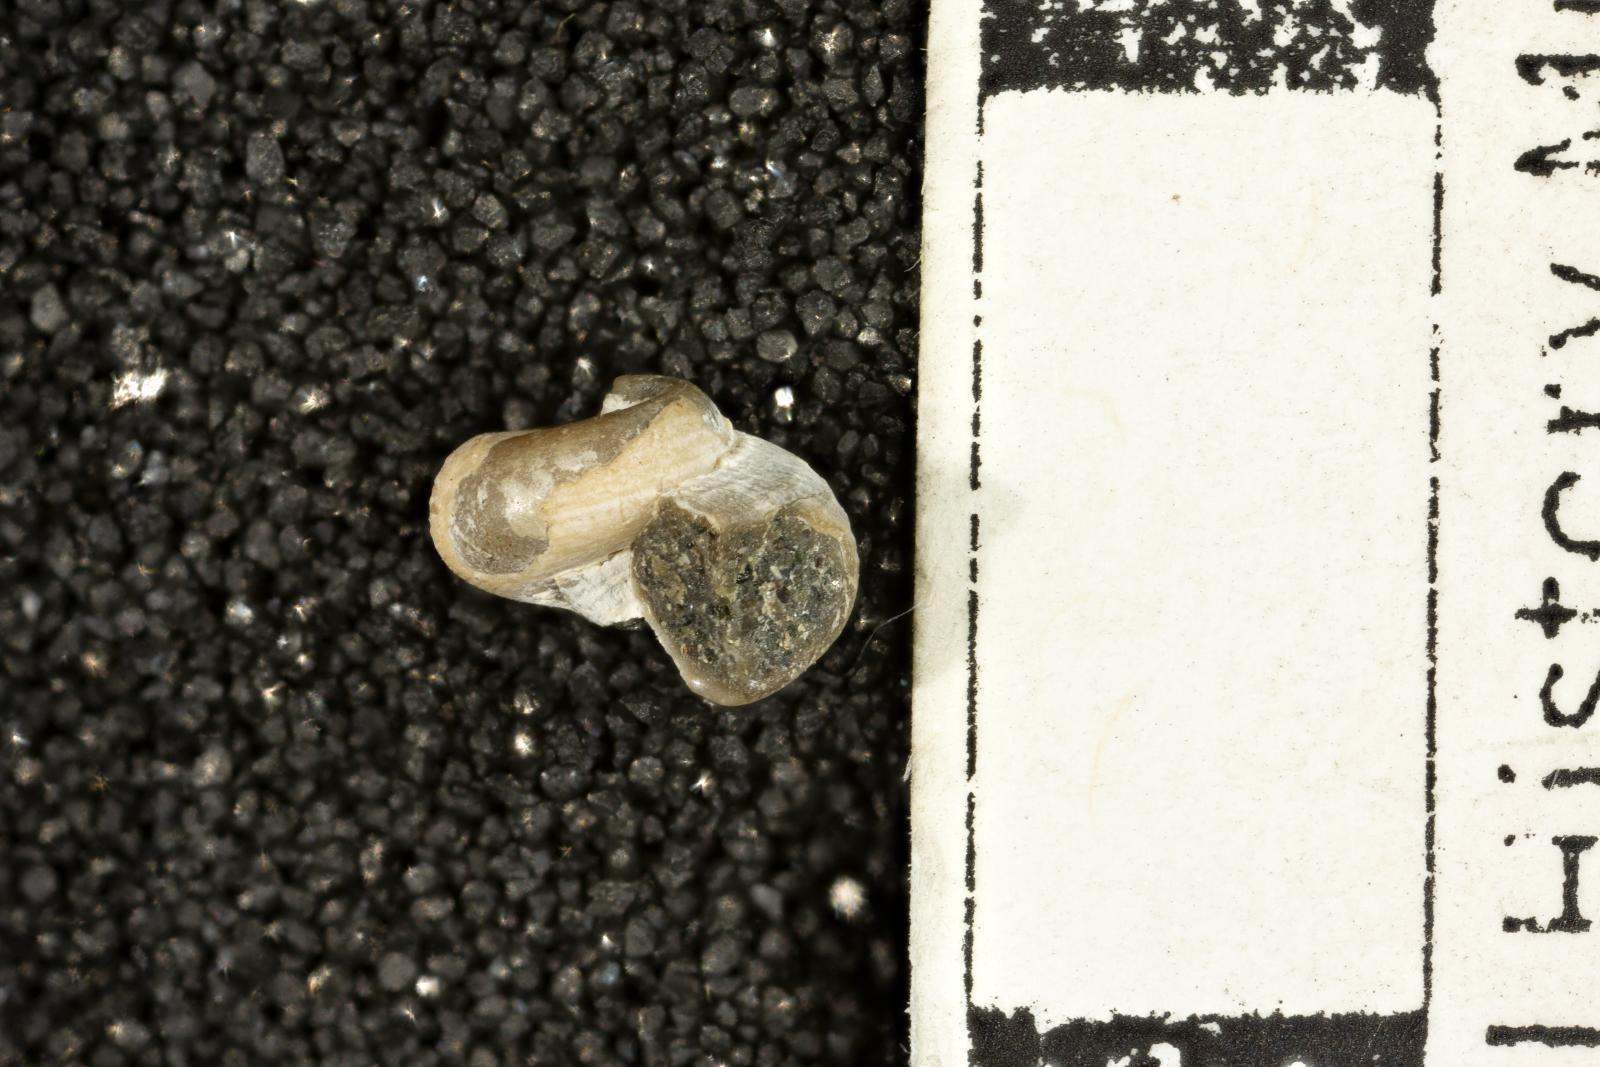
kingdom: Animalia
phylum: Mollusca
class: Gastropoda
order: Trochida
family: Turbinidae
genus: Igonoia
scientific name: Igonoia vacca
